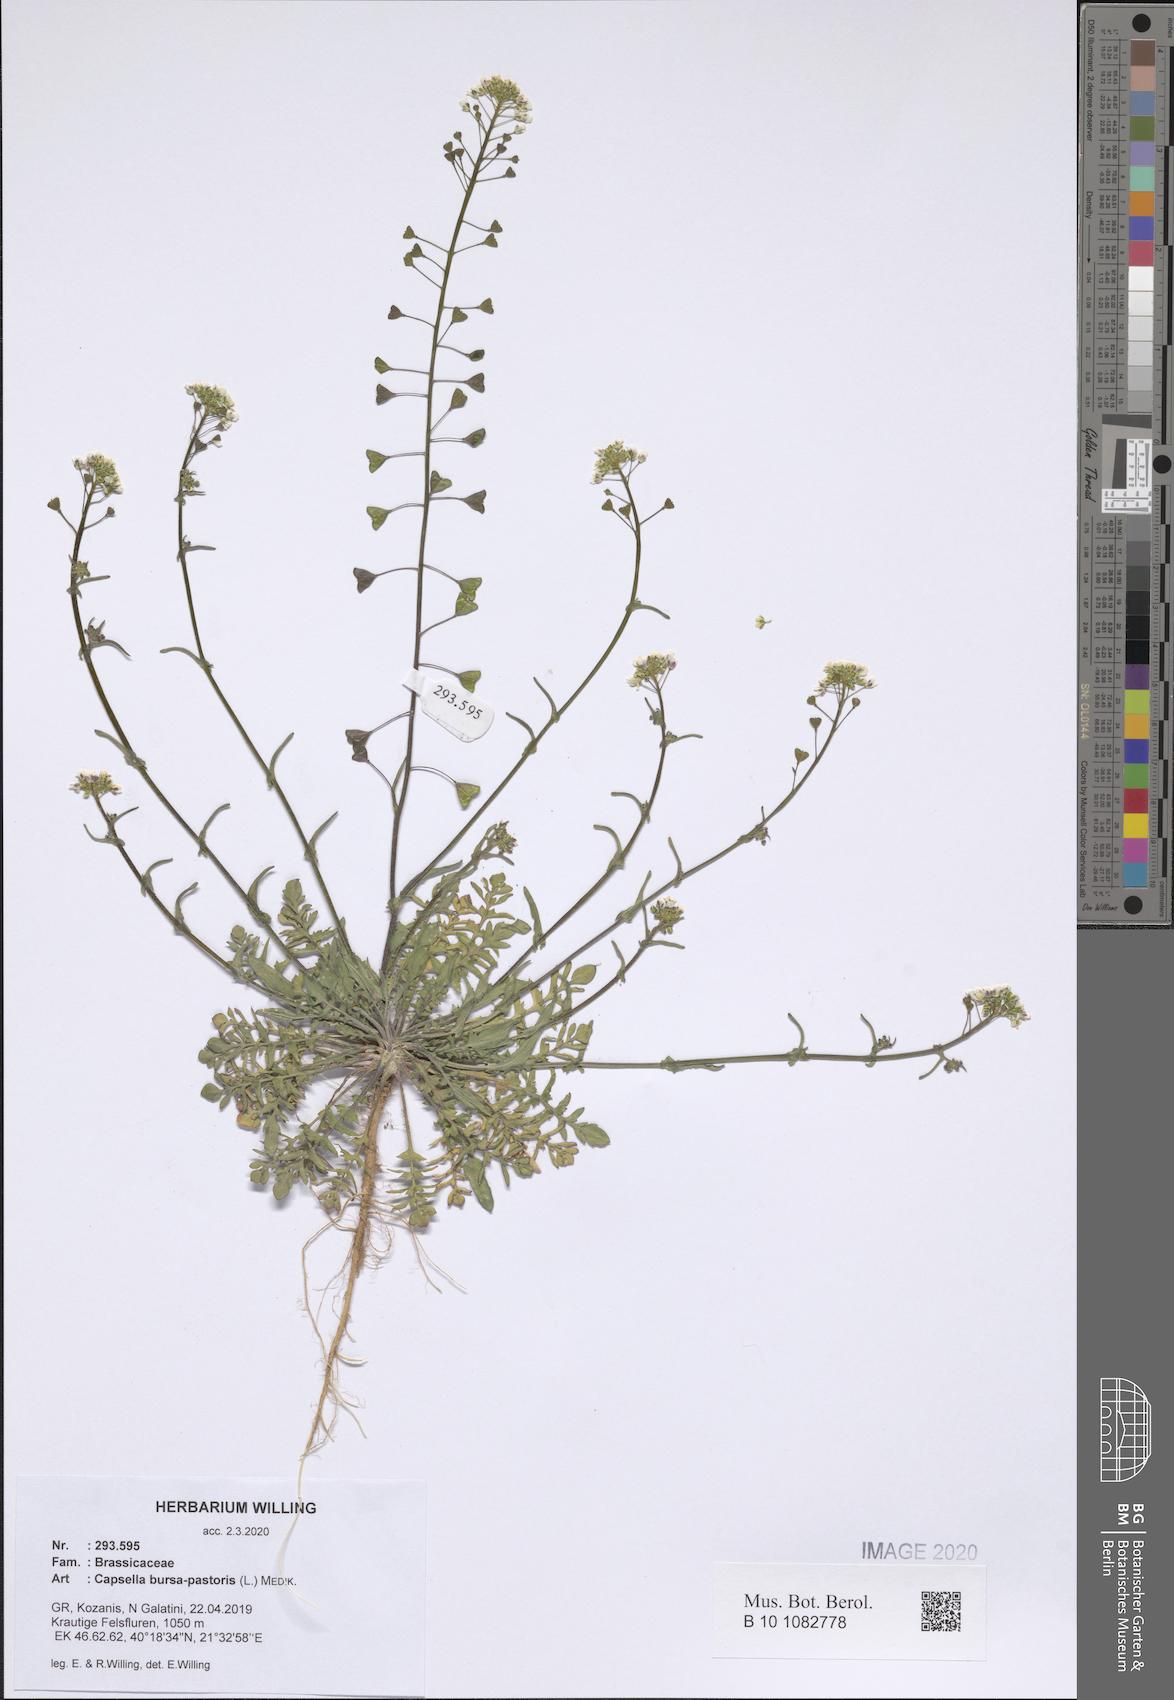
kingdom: Plantae
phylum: Tracheophyta
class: Magnoliopsida
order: Brassicales
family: Brassicaceae
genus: Capsella
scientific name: Capsella bursa-pastoris
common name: Shepherd's purse
